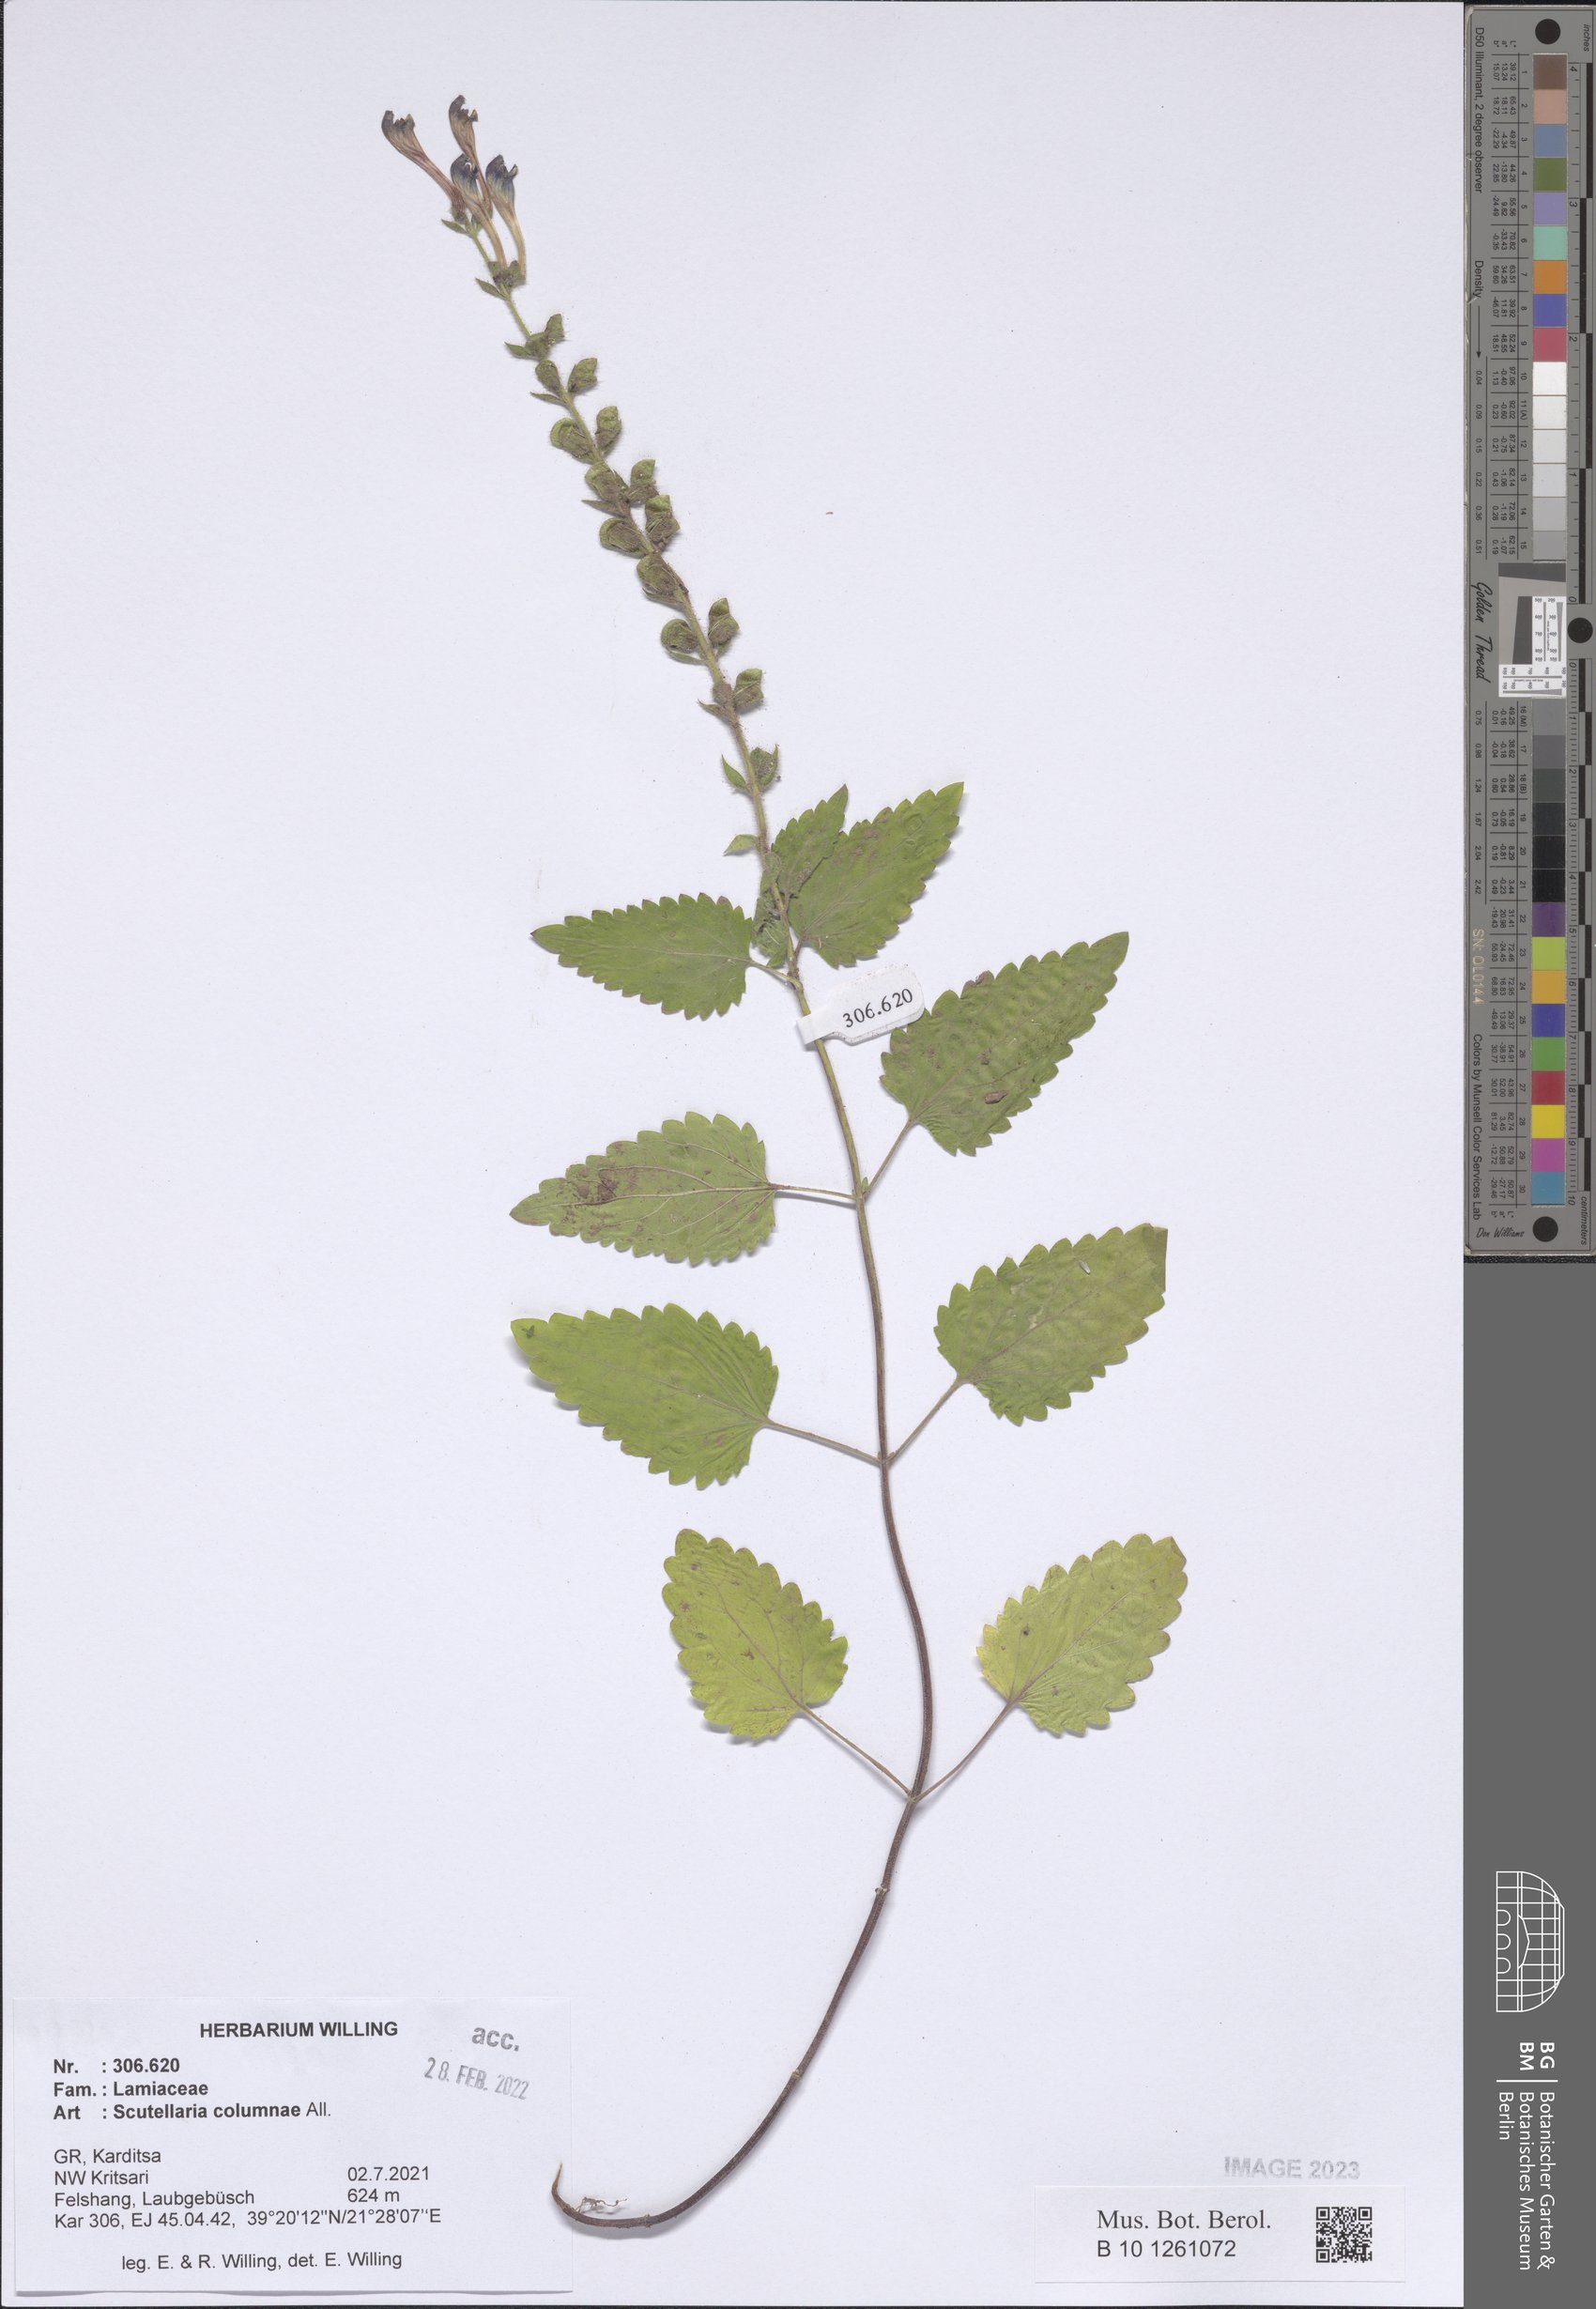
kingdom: Plantae
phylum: Tracheophyta
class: Magnoliopsida
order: Lamiales
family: Lamiaceae
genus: Scutellaria
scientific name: Scutellaria columnae
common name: Large skullcap
